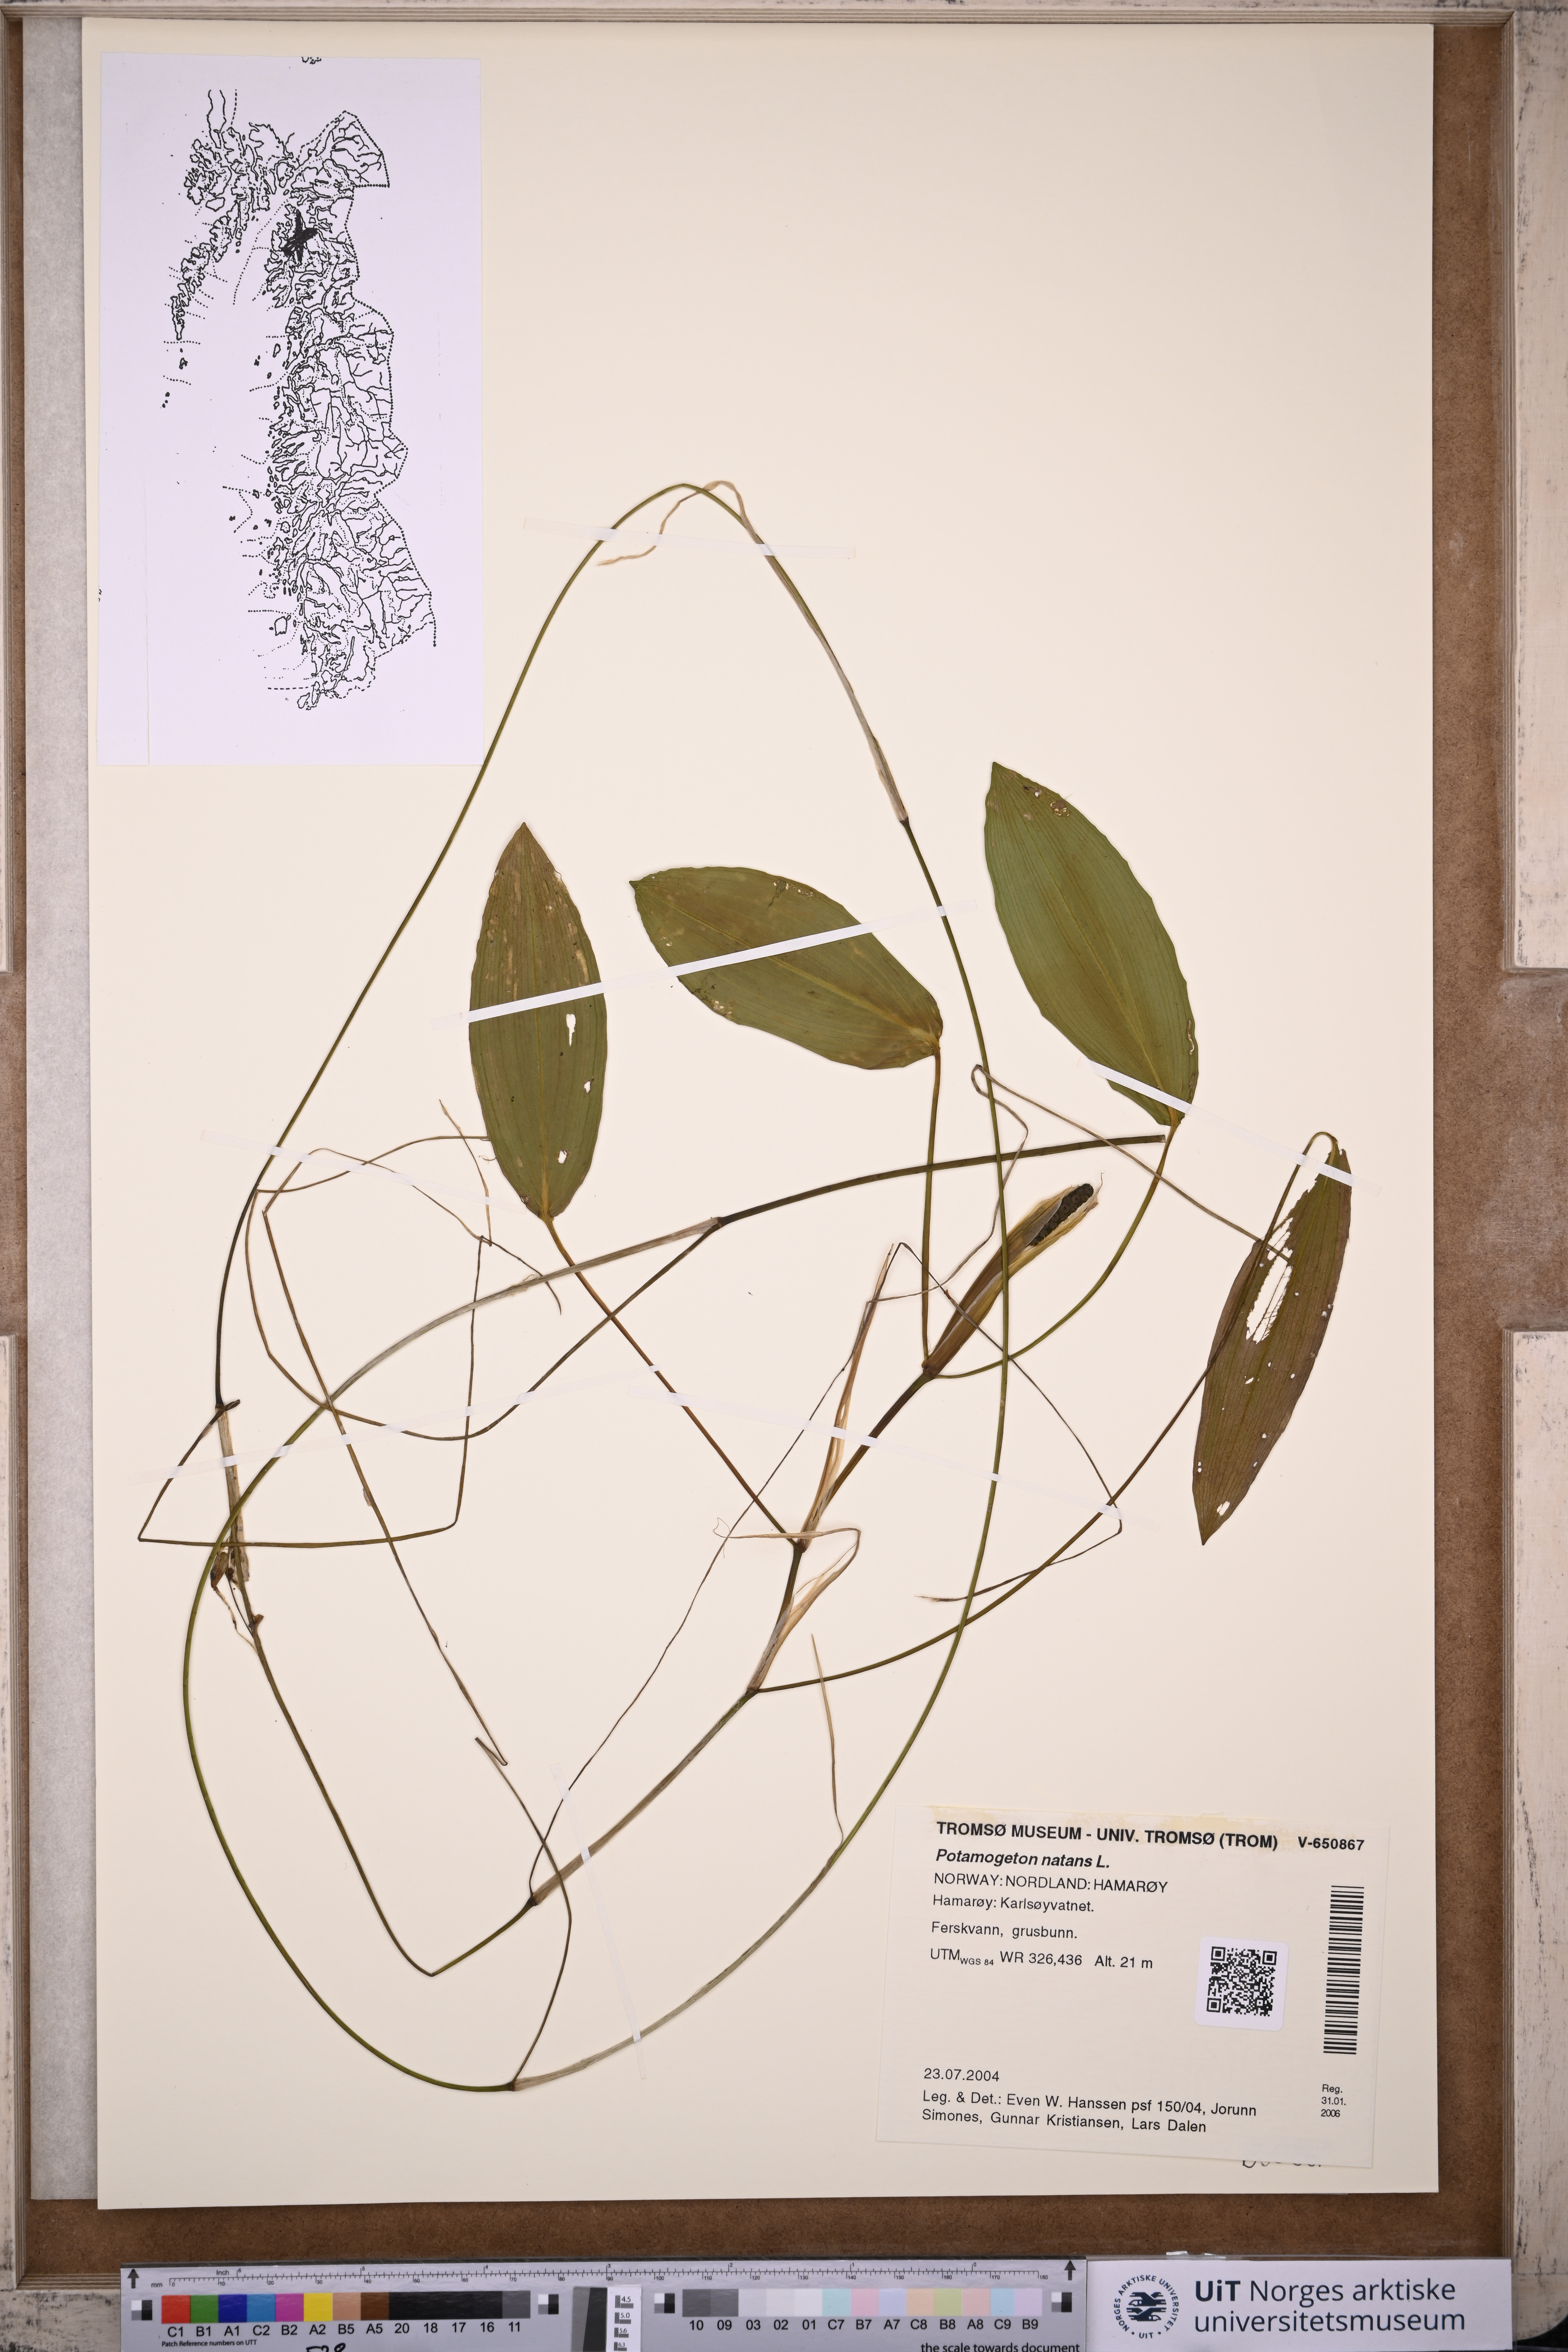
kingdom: Plantae
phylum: Tracheophyta
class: Liliopsida
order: Alismatales
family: Potamogetonaceae
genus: Potamogeton
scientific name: Potamogeton natans
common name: Broad-leaved pondweed
